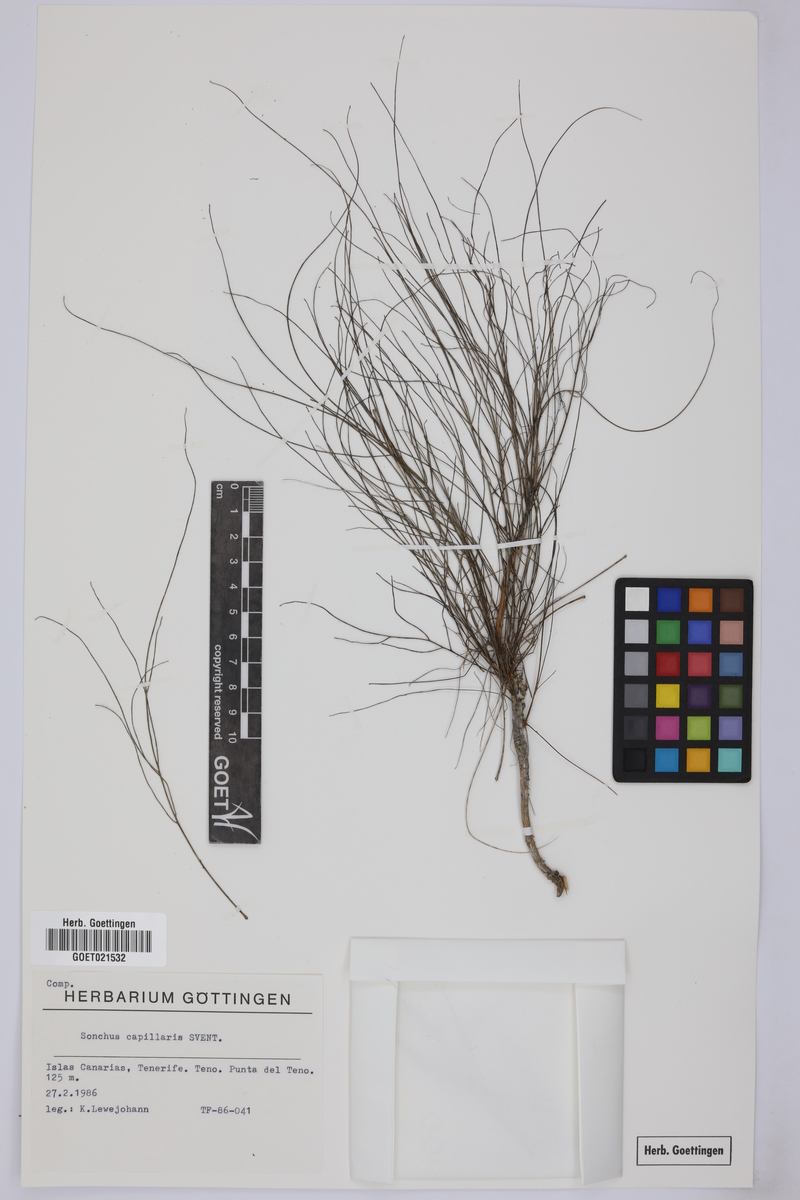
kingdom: Plantae
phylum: Tracheophyta
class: Magnoliopsida
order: Asterales
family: Asteraceae
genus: Sonchus
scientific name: Sonchus capillaris
